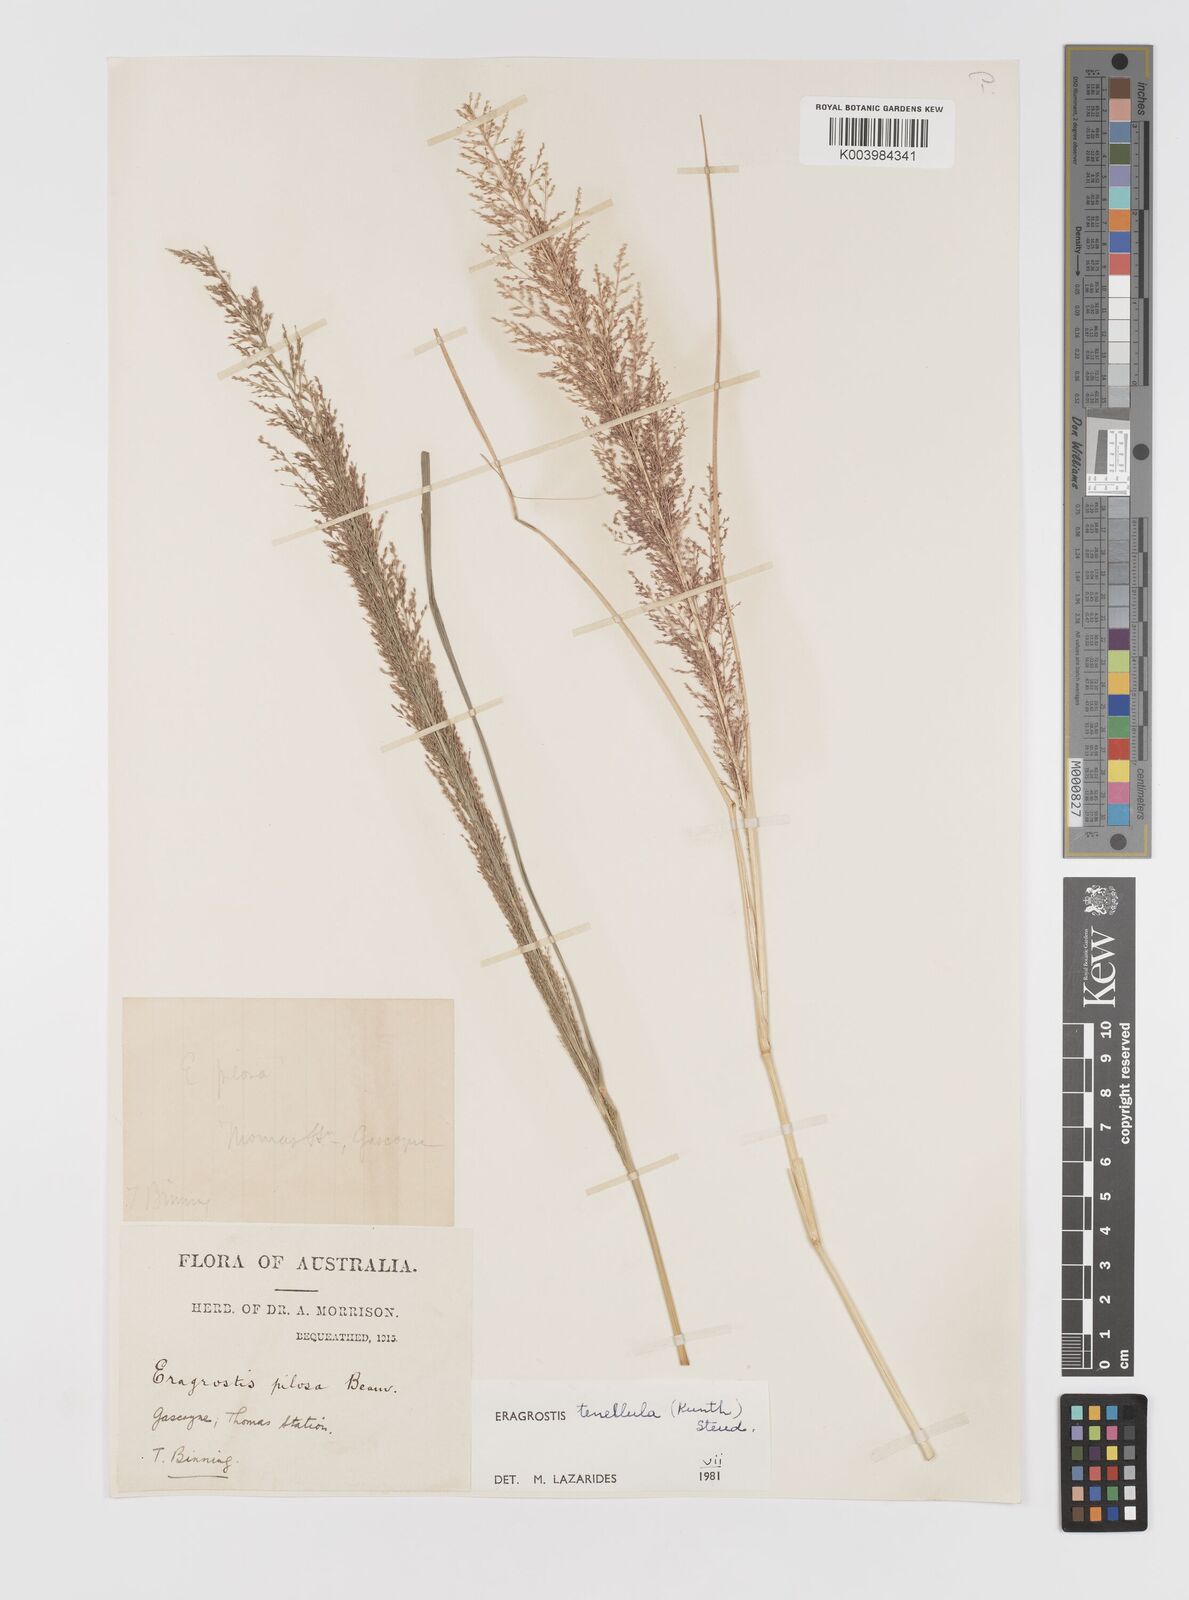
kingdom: Plantae
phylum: Tracheophyta
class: Liliopsida
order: Poales
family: Poaceae
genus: Eragrostis
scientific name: Eragrostis tenellula
